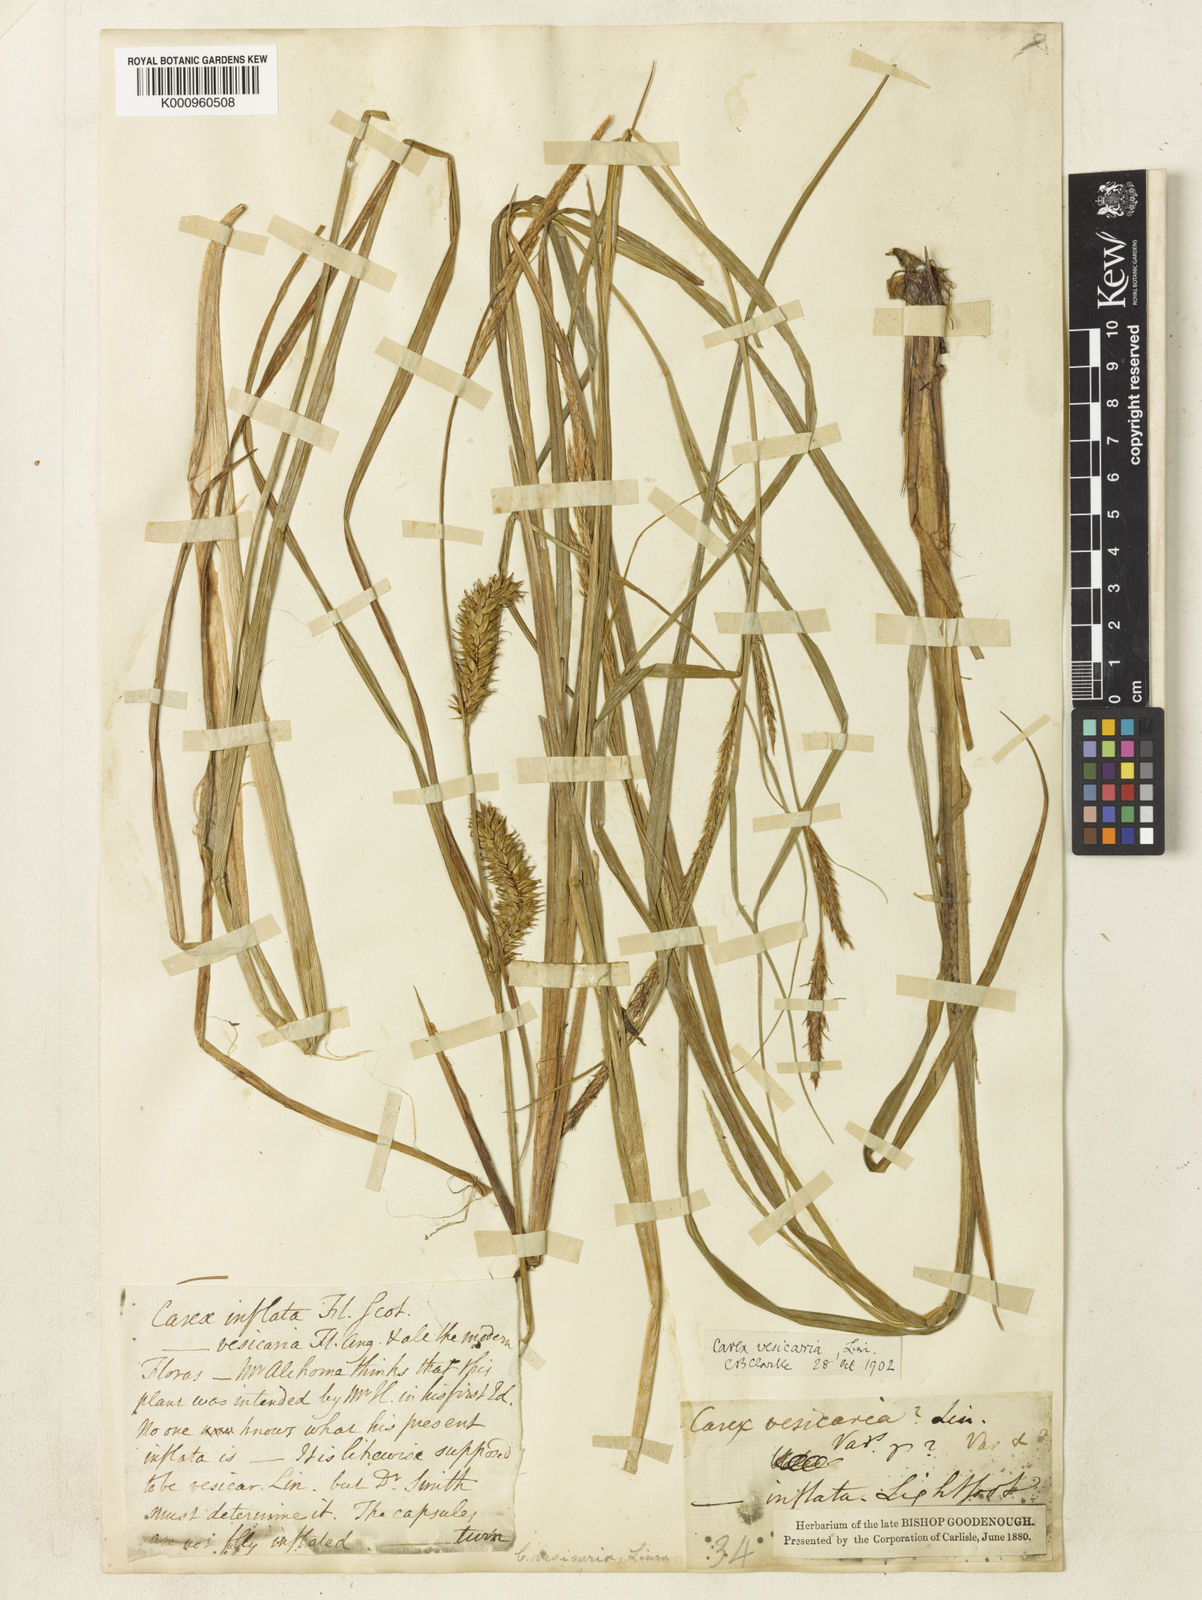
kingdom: Plantae
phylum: Tracheophyta
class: Liliopsida
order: Poales
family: Cyperaceae
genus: Carex
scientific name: Carex vesicaria
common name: Bladder-sedge
